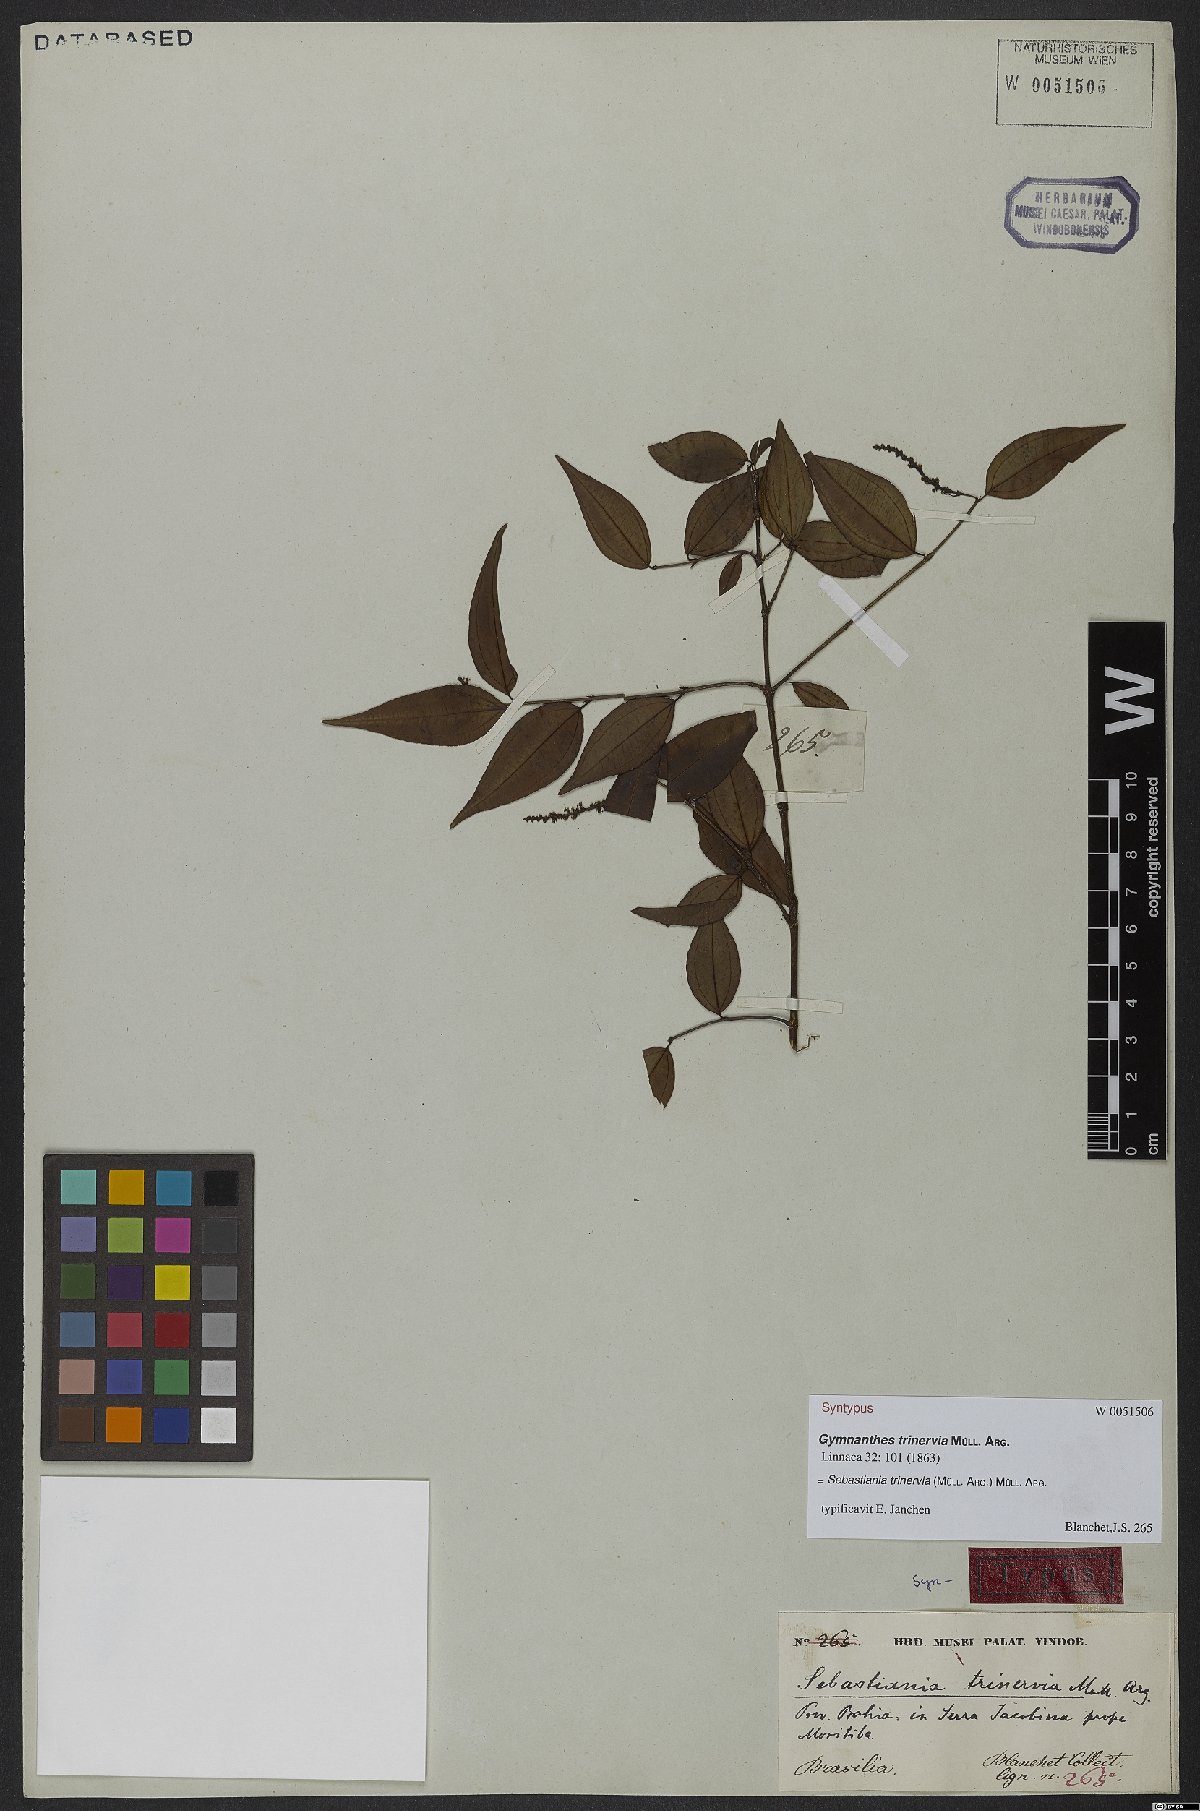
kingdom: Plantae
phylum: Tracheophyta
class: Magnoliopsida
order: Malpighiales
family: Euphorbiaceae
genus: Sebastiania
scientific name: Sebastiania trinervia
